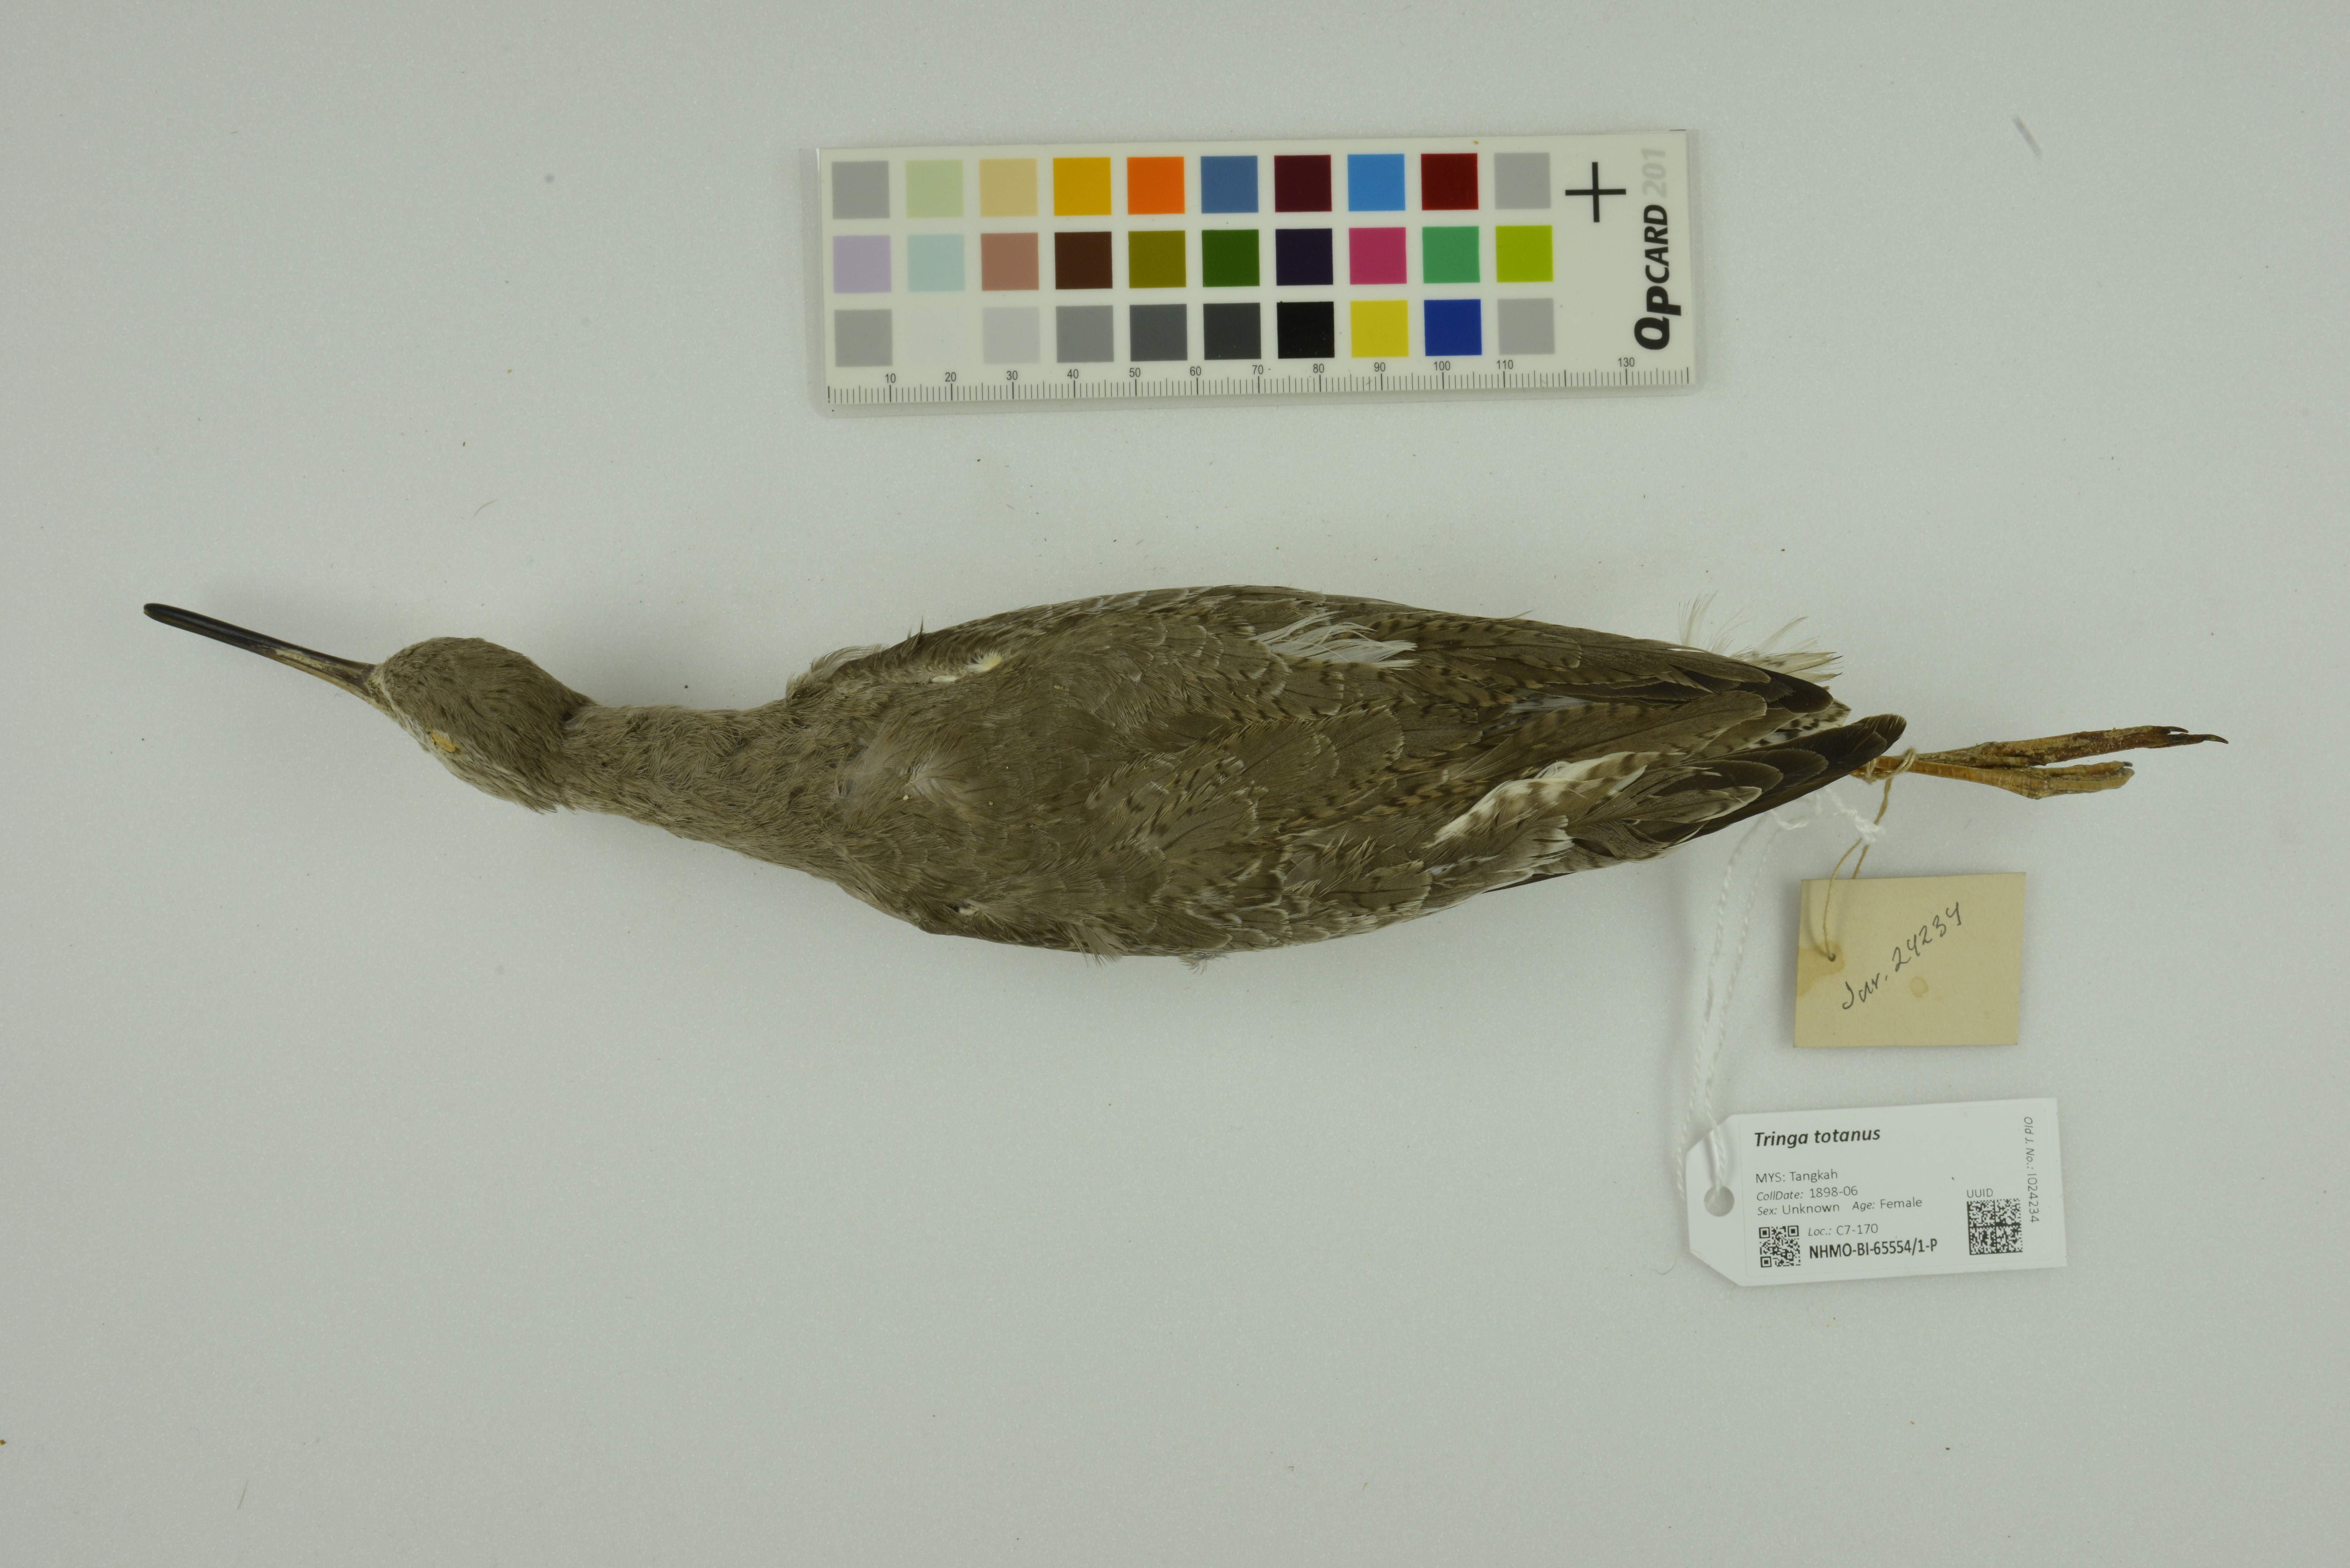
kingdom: Animalia
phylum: Chordata
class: Aves
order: Charadriiformes
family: Scolopacidae
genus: Tringa
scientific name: Tringa totanus
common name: Common redshank
